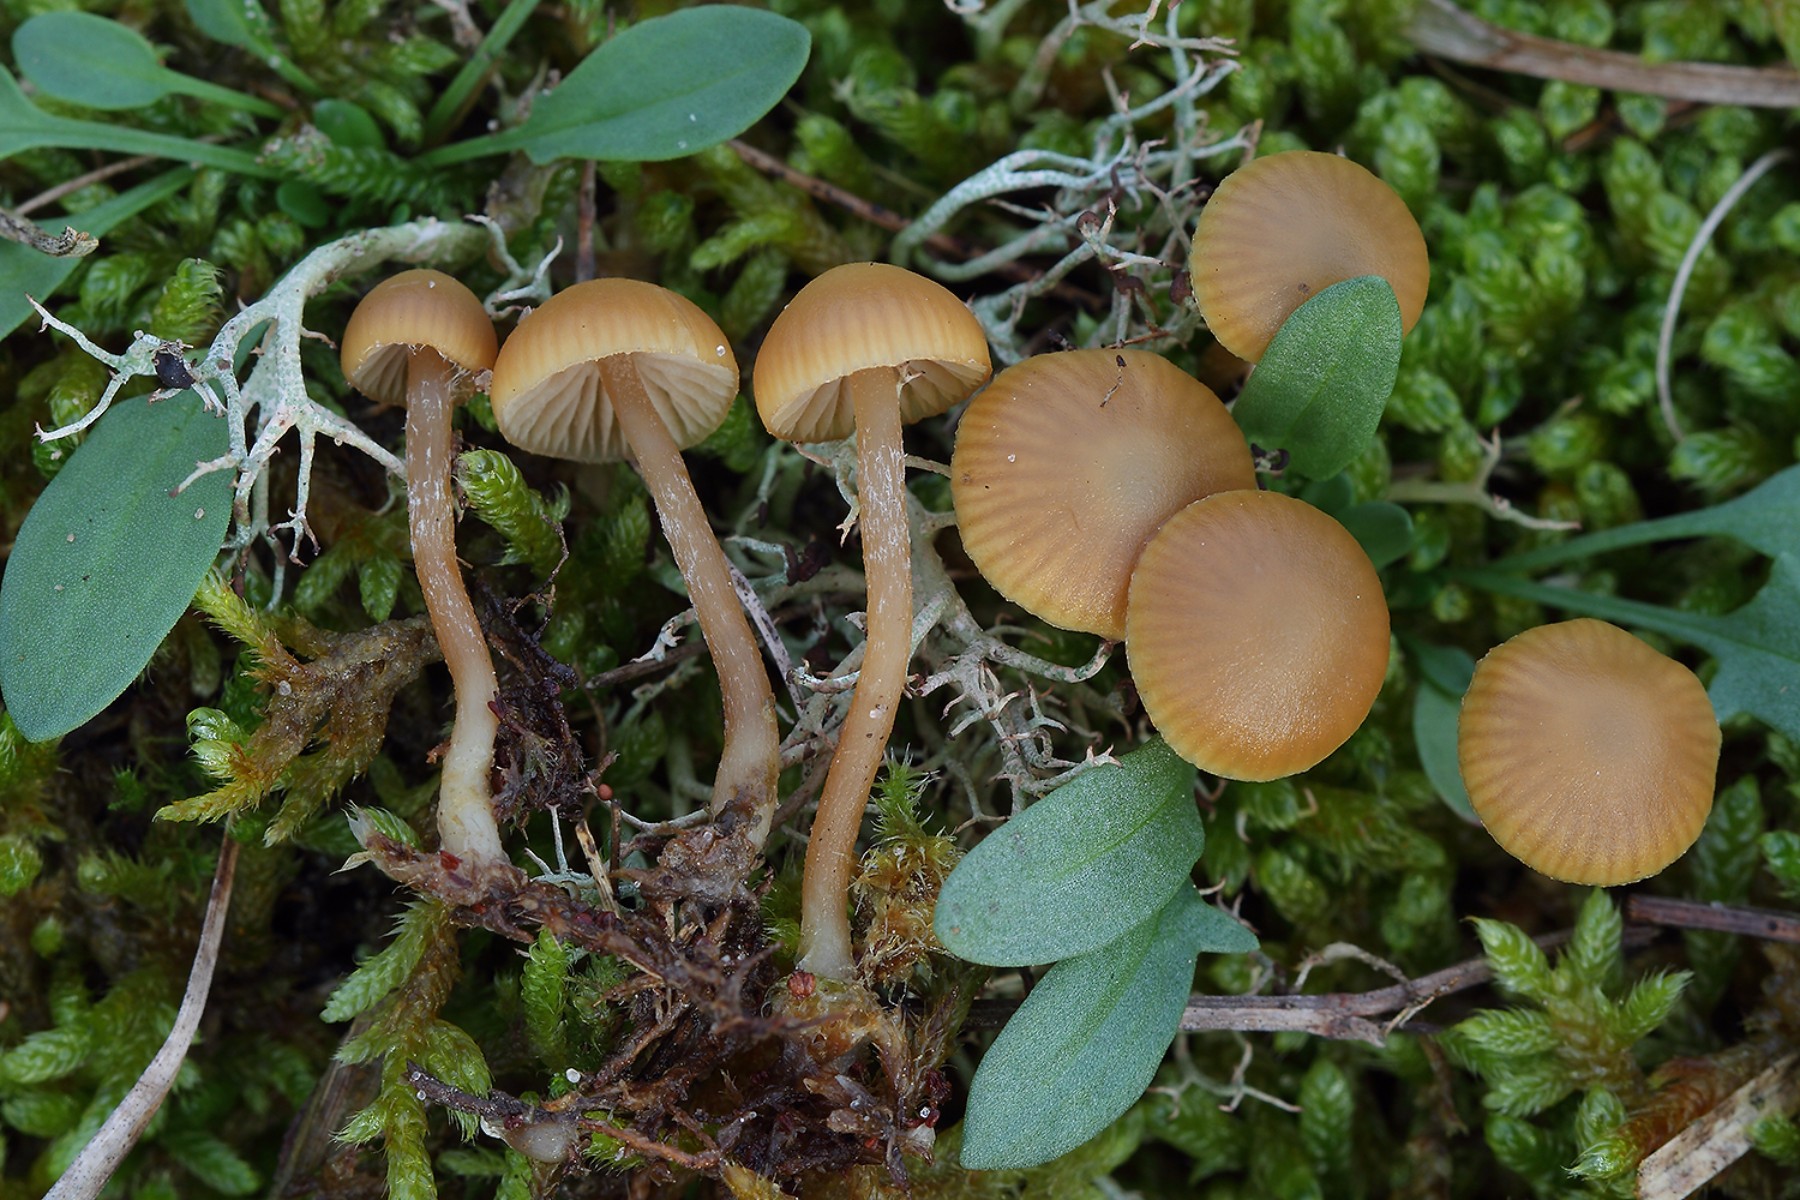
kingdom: Fungi
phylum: Basidiomycota
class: Agaricomycetes
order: Agaricales
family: Hymenogastraceae
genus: Galerina
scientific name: Galerina mniophila
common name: olivengul hjelmhat
